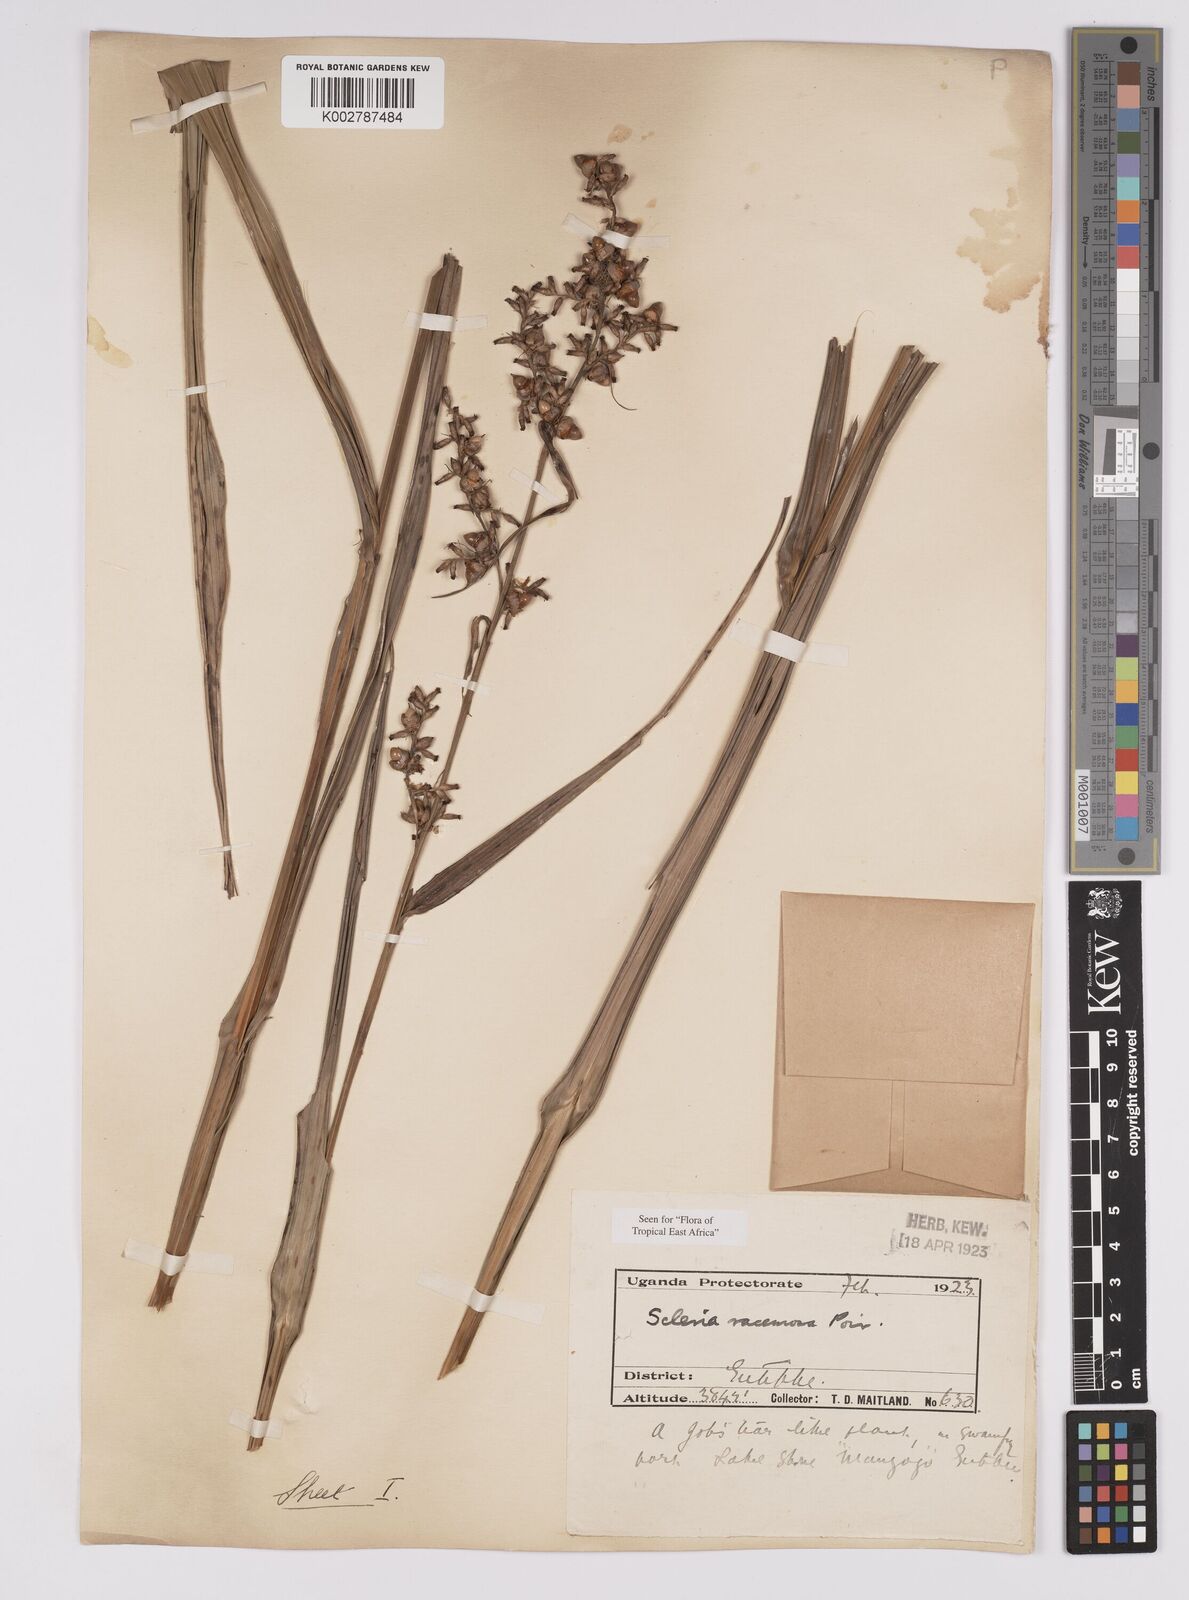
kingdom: Plantae
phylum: Tracheophyta
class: Liliopsida
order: Poales
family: Cyperaceae
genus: Scleria
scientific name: Scleria racemosa
